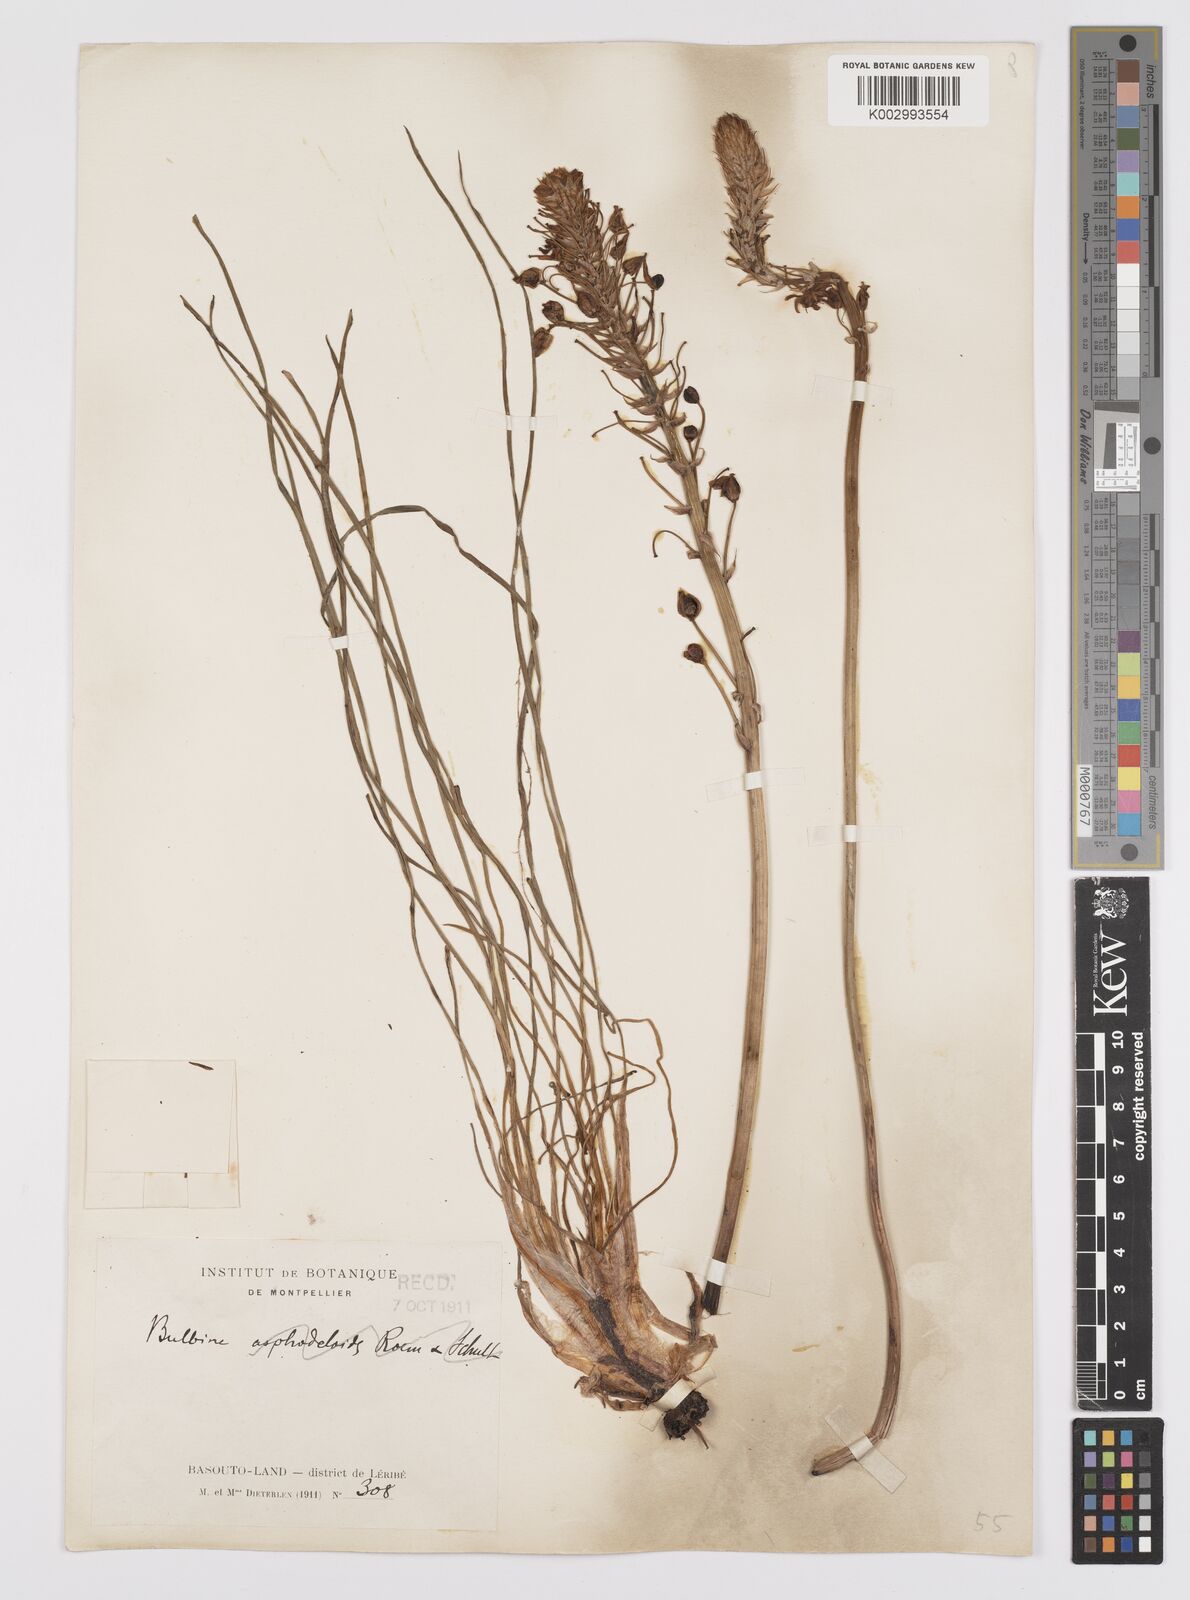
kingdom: Plantae
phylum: Tracheophyta
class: Liliopsida
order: Asparagales
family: Asphodelaceae
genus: Bulbine
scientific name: Bulbine abyssinica
